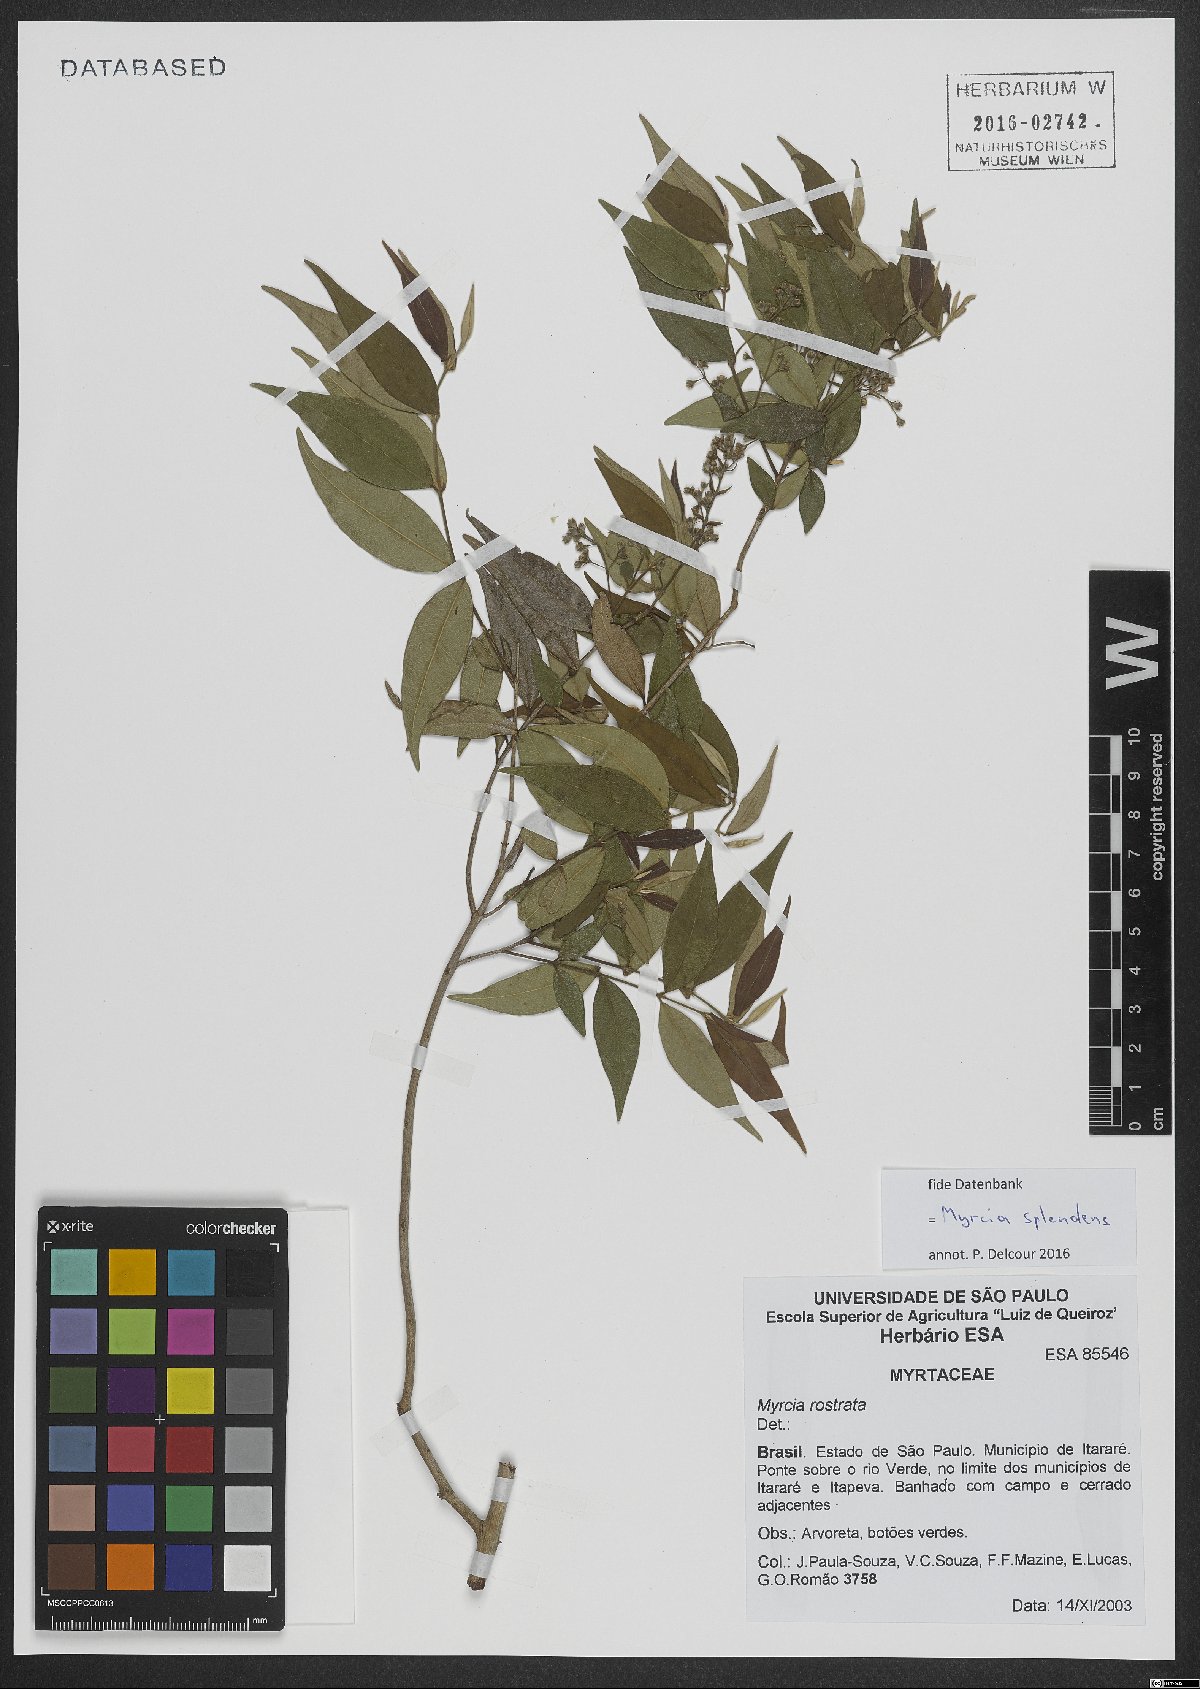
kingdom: Plantae
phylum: Tracheophyta
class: Magnoliopsida
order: Myrtales
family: Myrtaceae
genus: Myrcia
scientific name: Myrcia splendens
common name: Surinam cherry
